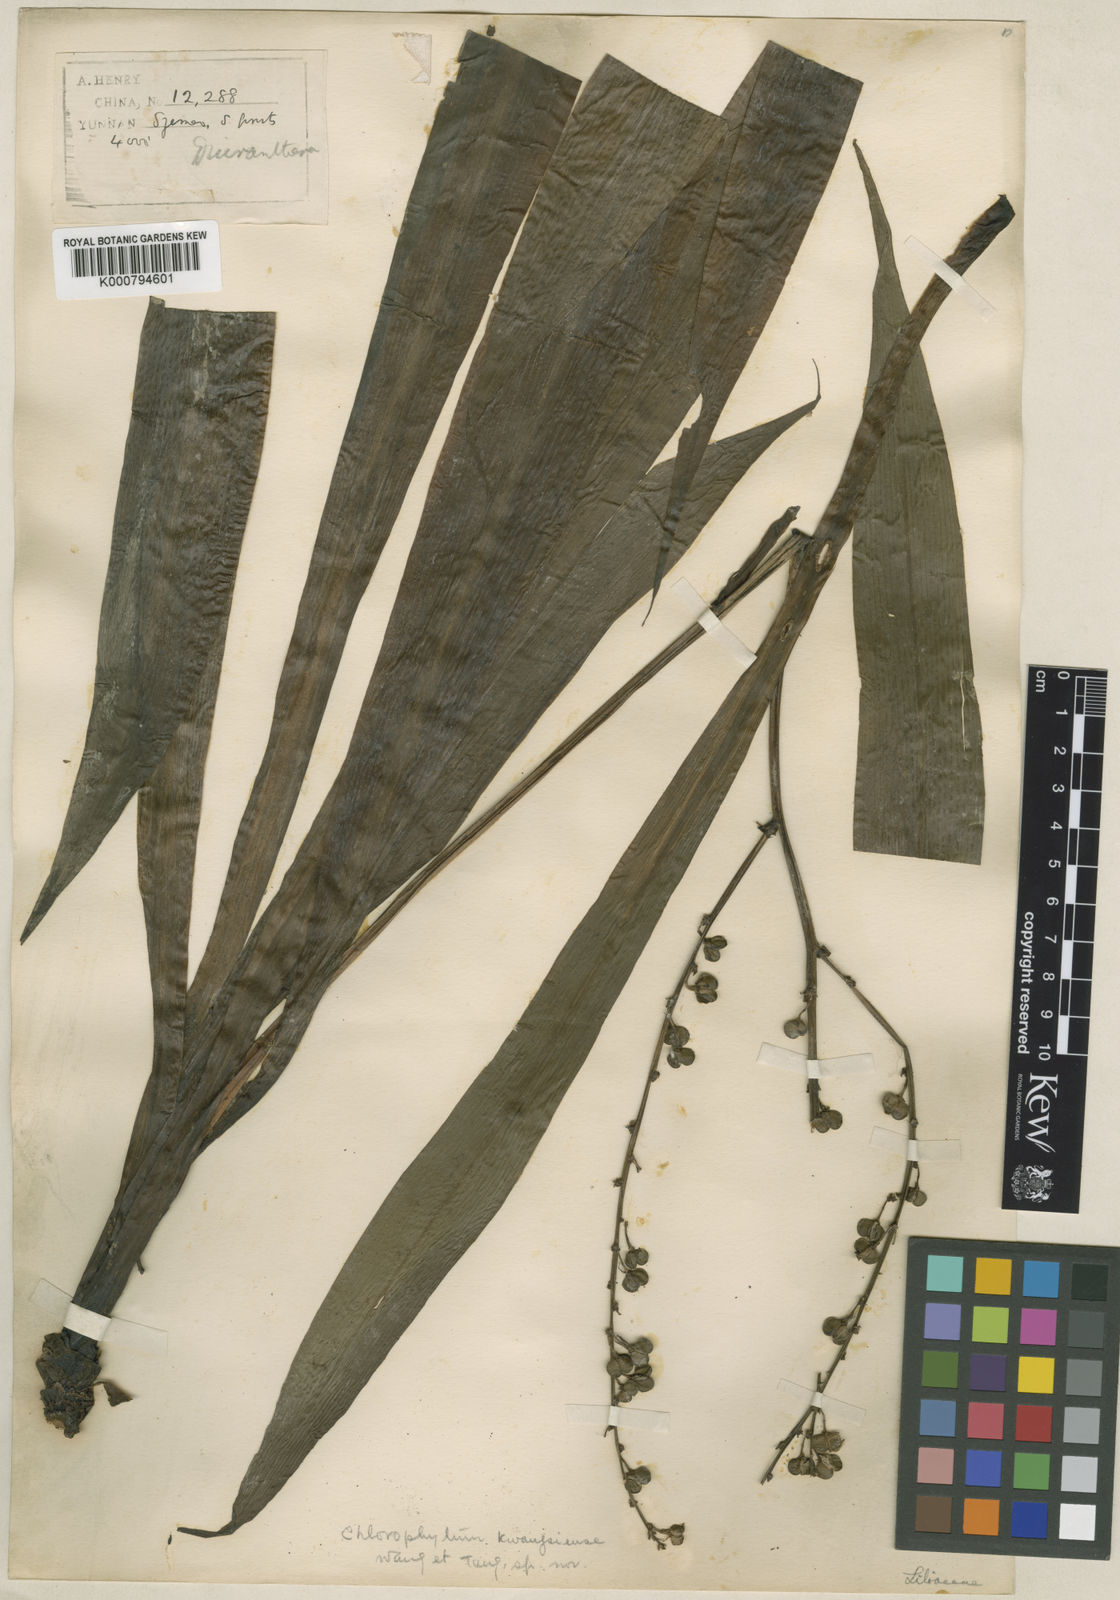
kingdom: Plantae
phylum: Tracheophyta
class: Liliopsida
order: Asparagales
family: Asparagaceae
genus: Chlorophytum
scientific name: Chlorophytum
